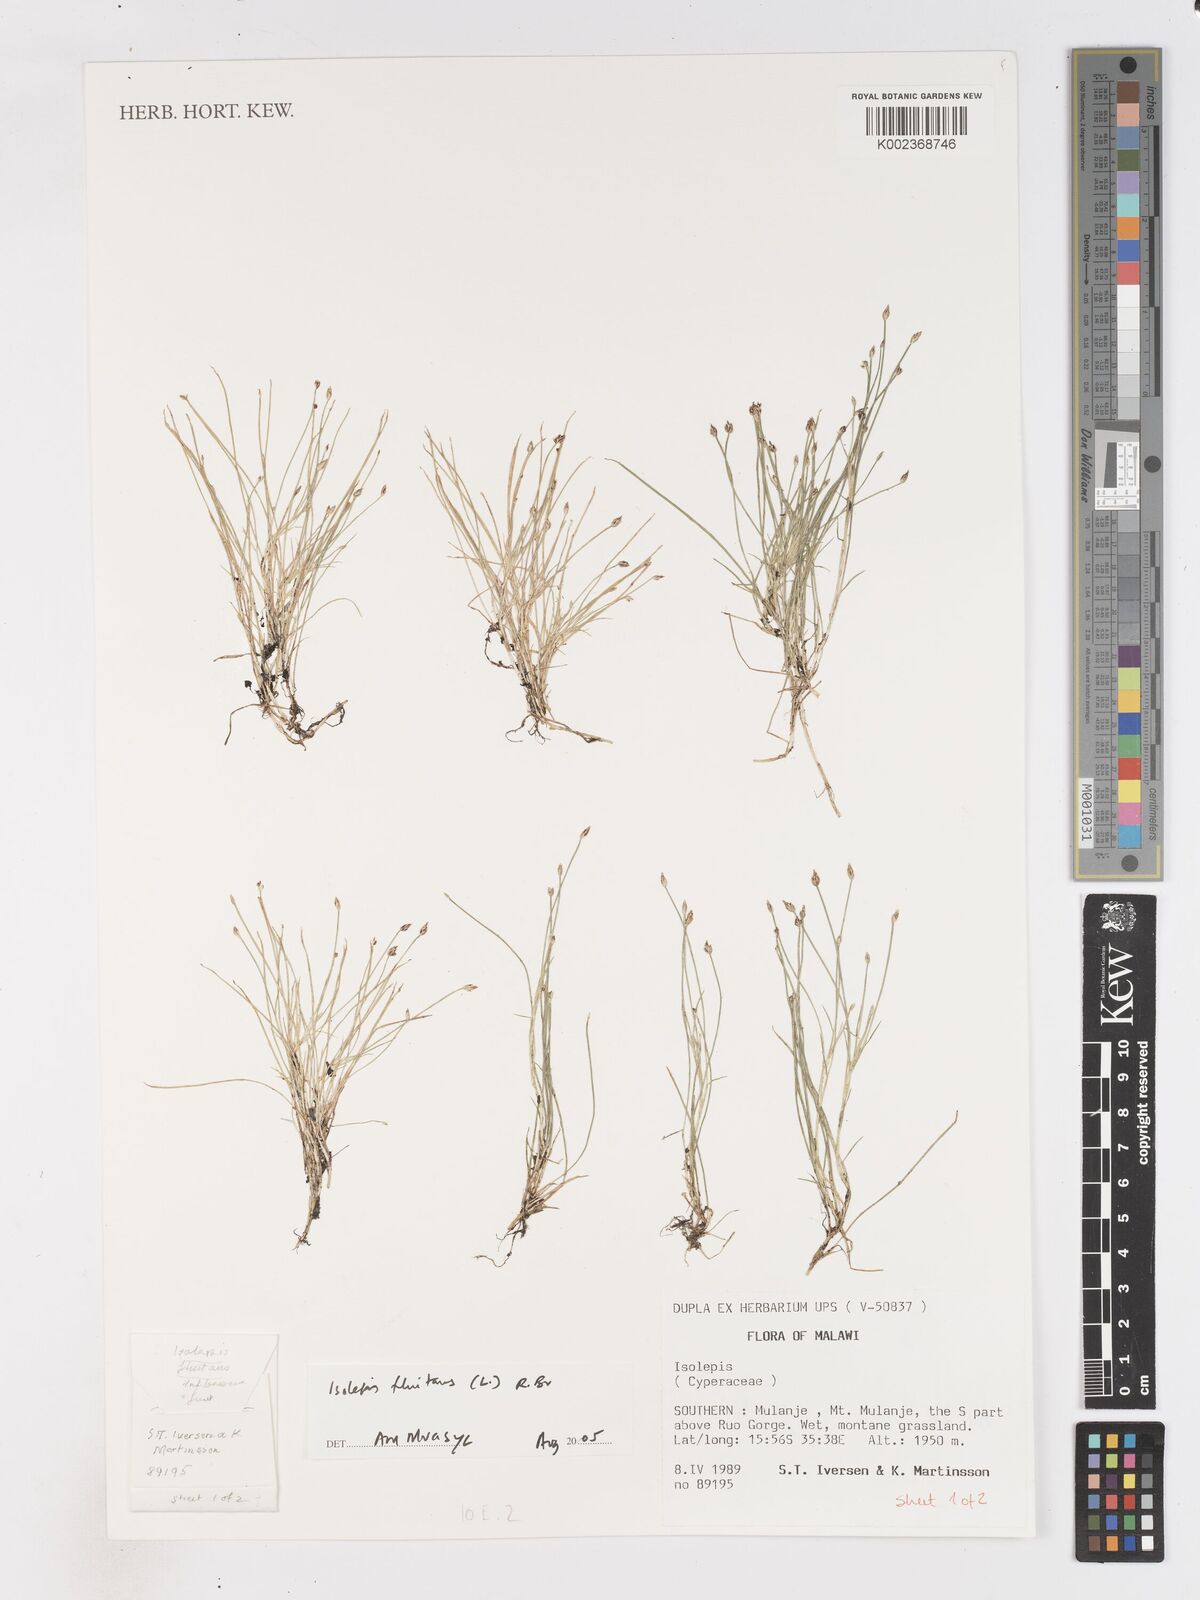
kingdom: Plantae
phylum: Tracheophyta
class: Liliopsida
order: Poales
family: Cyperaceae
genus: Isolepis
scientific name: Isolepis fluitans
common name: Floating club-rush
